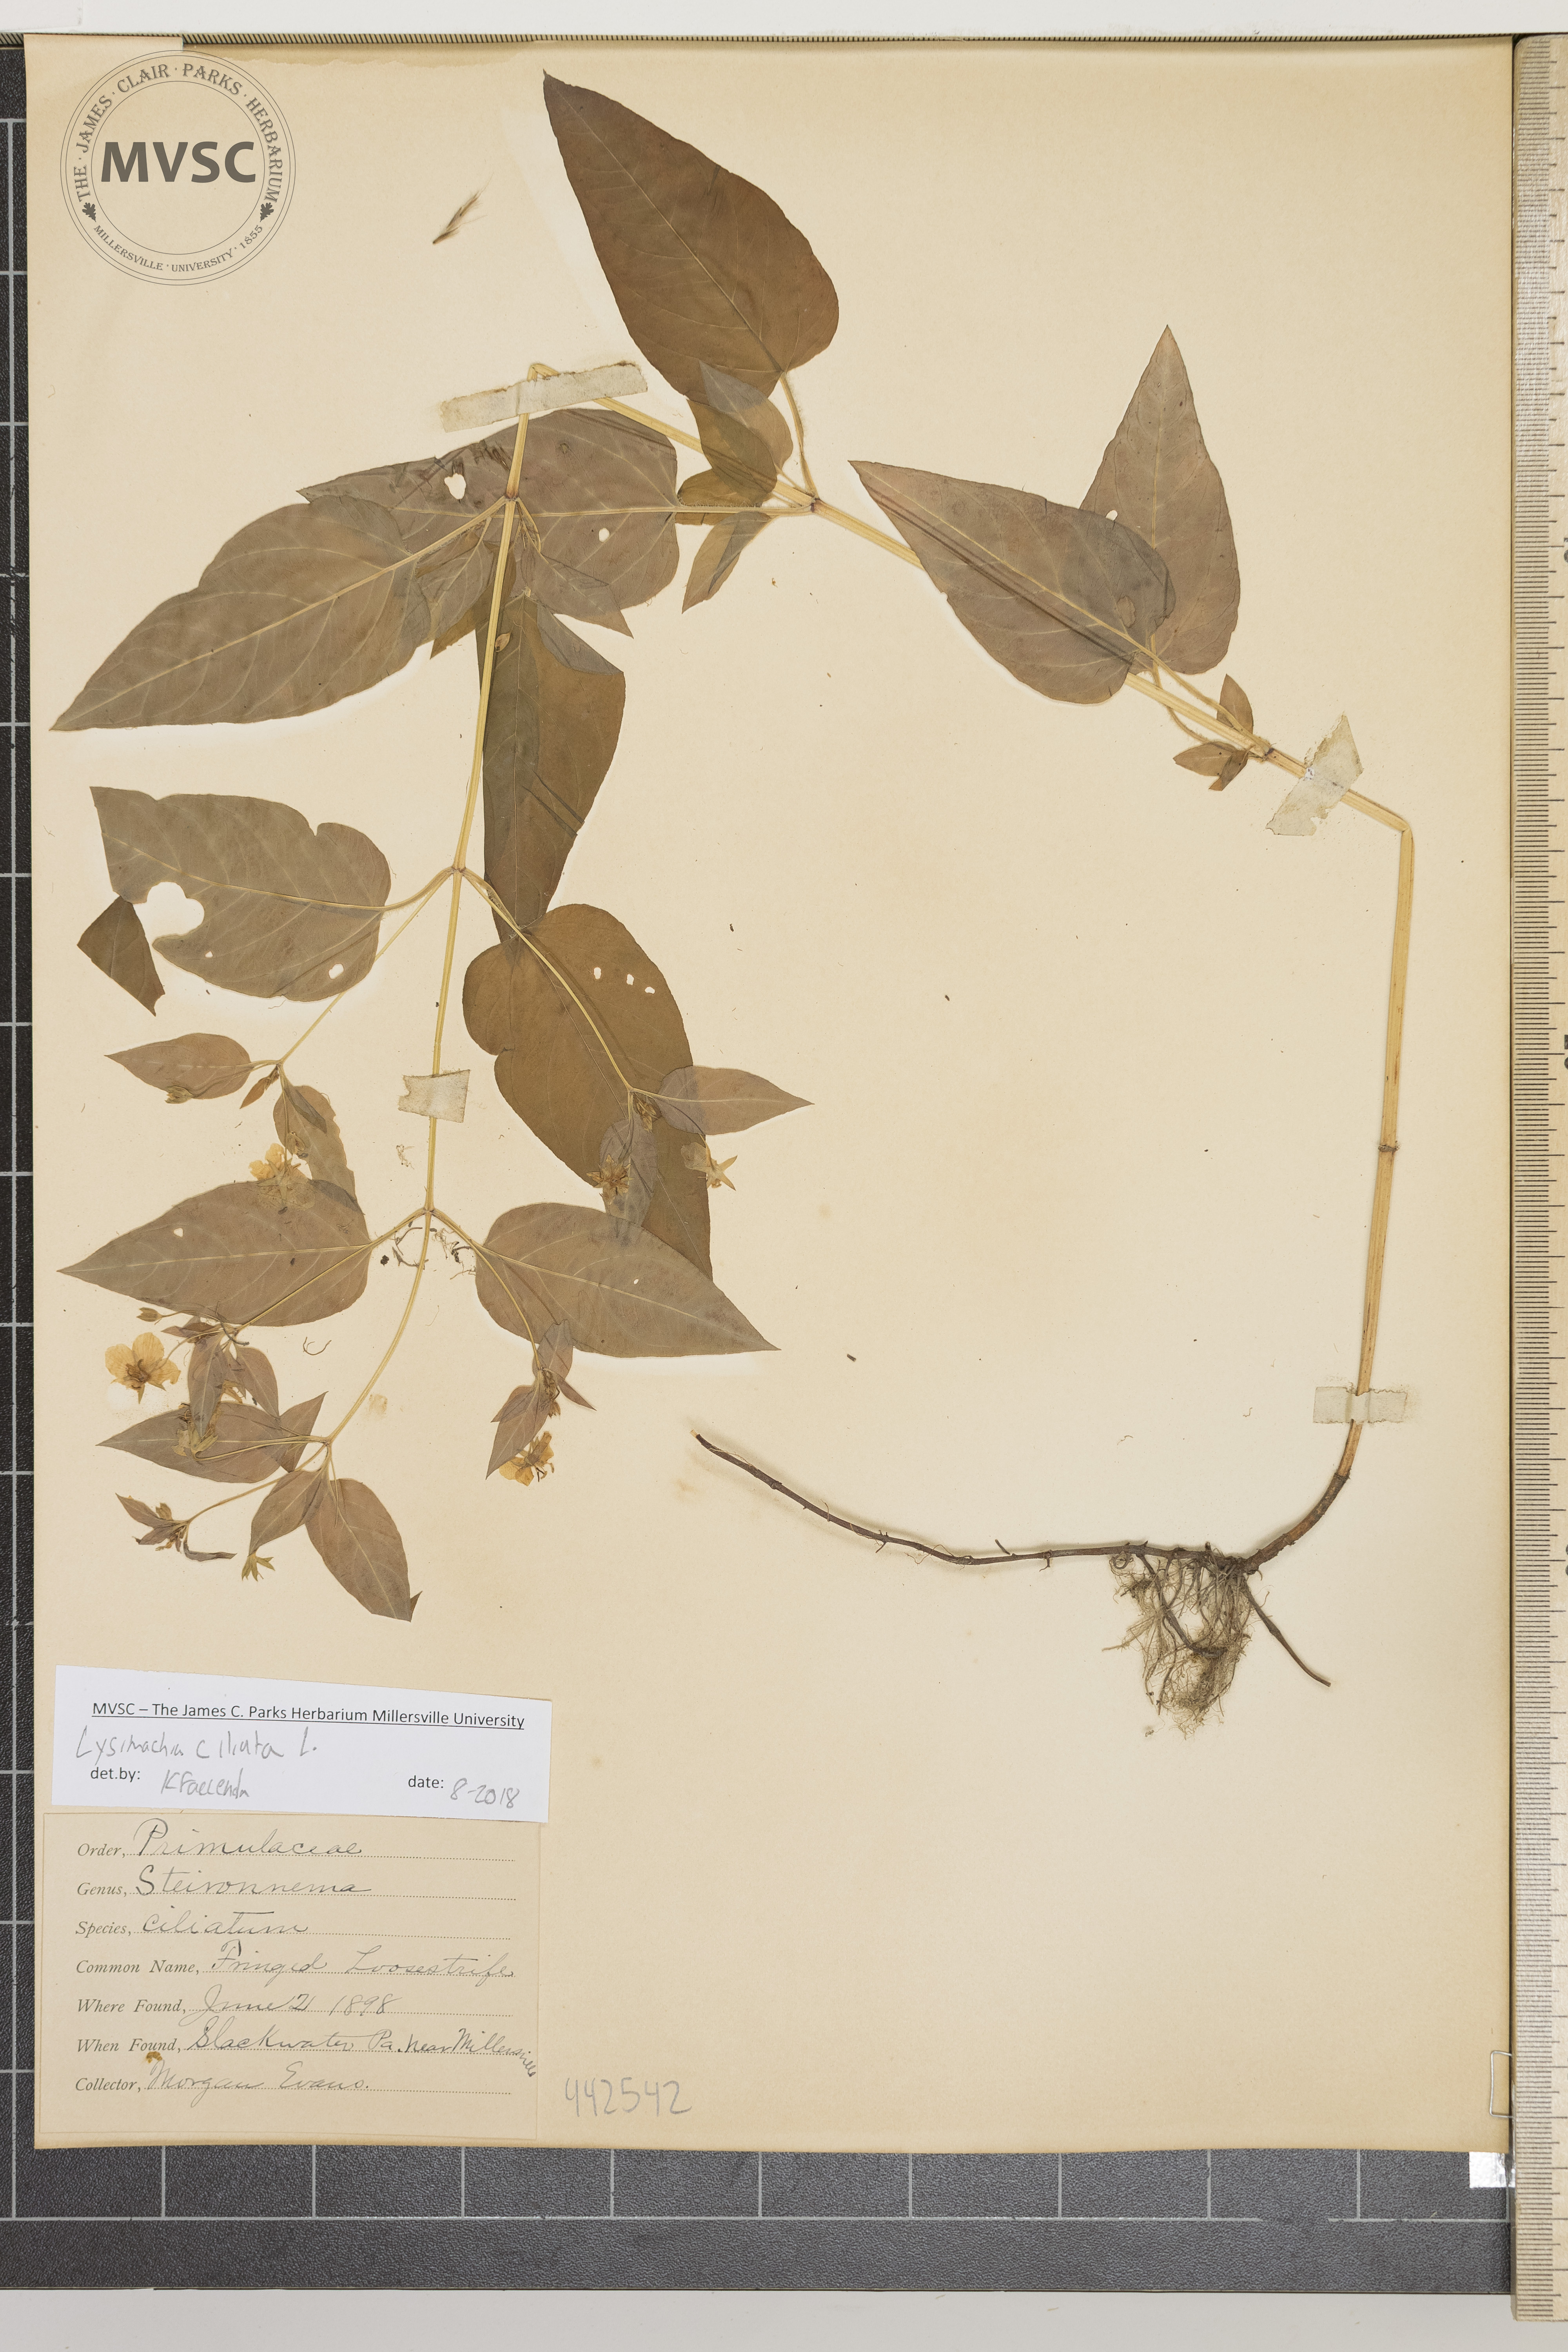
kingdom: Plantae
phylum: Tracheophyta
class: Magnoliopsida
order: Ericales
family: Primulaceae
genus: Lysimachia
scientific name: Lysimachia ciliata
